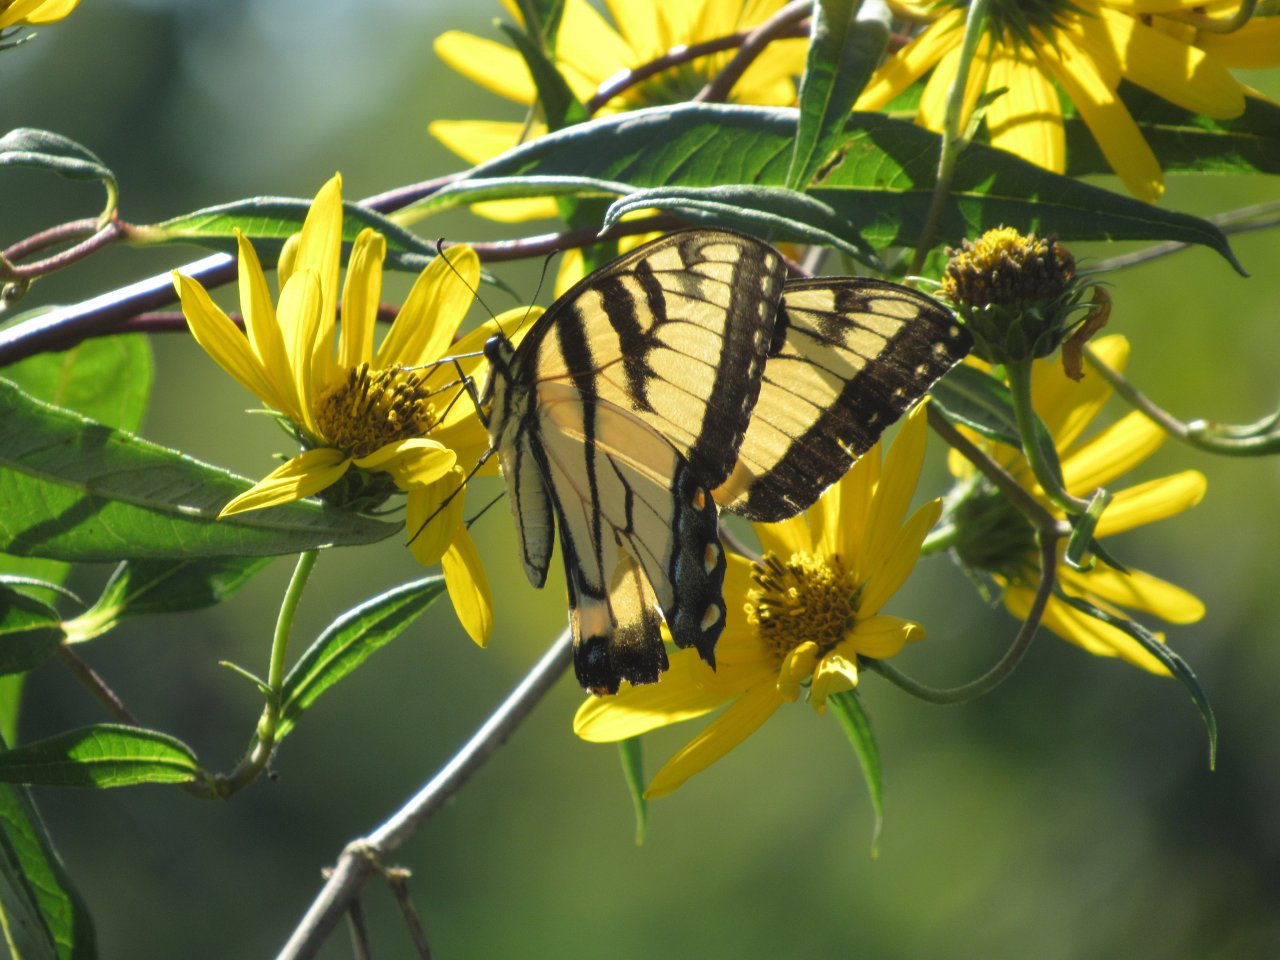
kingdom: Animalia
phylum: Arthropoda
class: Insecta
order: Lepidoptera
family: Papilionidae
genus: Pterourus
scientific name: Pterourus glaucus
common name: Eastern Tiger Swallowtail
